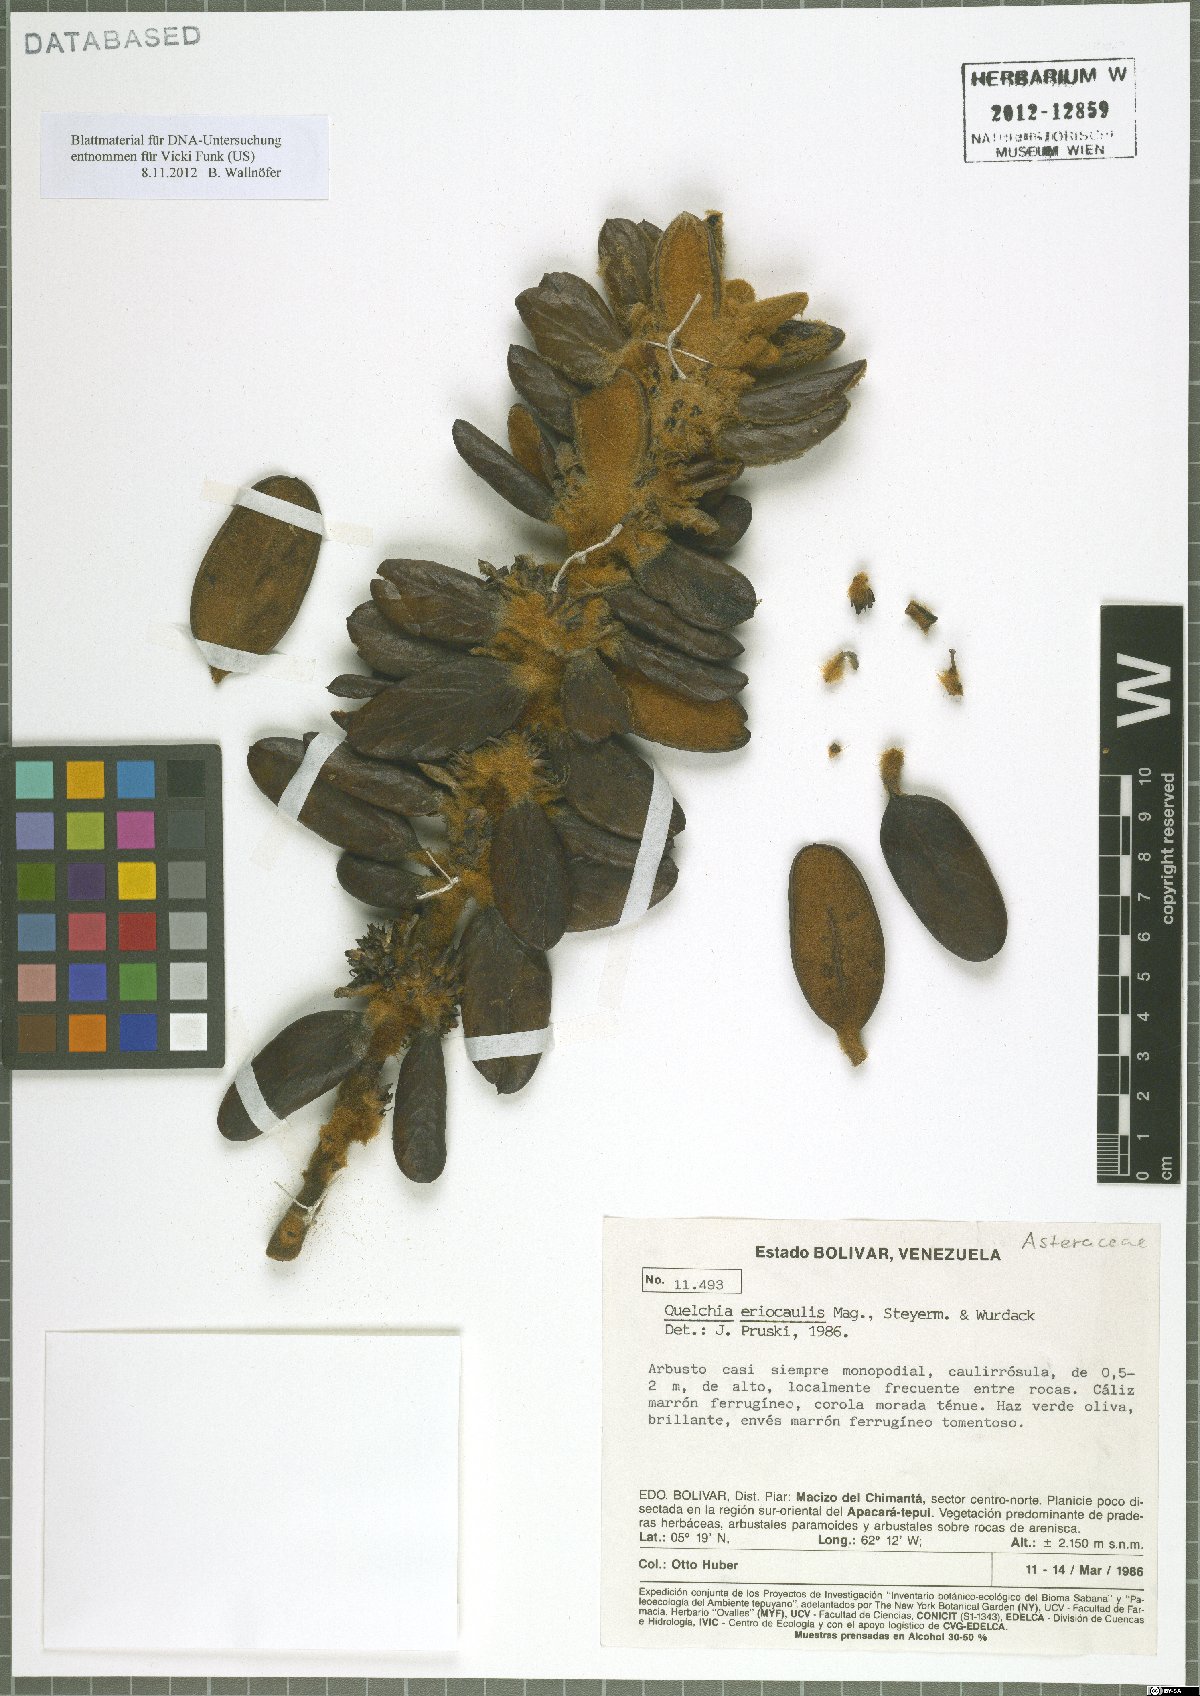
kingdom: Plantae
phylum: Tracheophyta
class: Magnoliopsida
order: Asterales
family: Asteraceae
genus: Quelchia
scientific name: Quelchia eriocaulis
